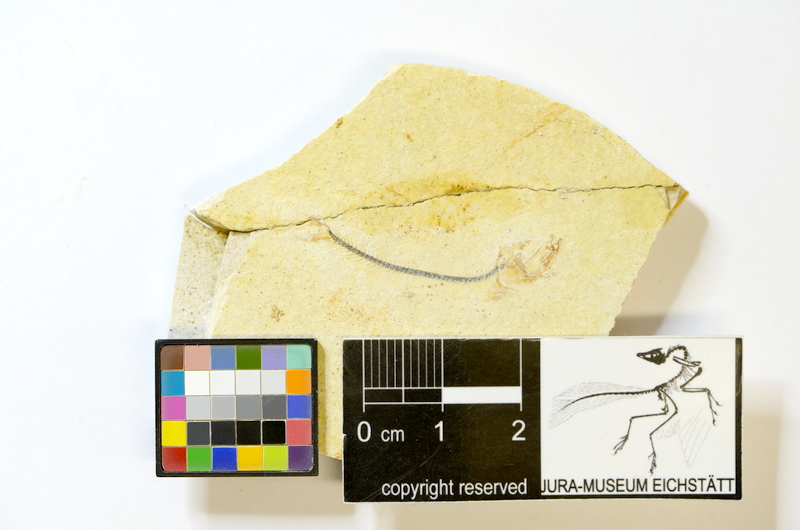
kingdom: Animalia
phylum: Chordata
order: Salmoniformes
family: Orthogonikleithridae
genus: Orthogonikleithrus
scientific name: Orthogonikleithrus hoelli
